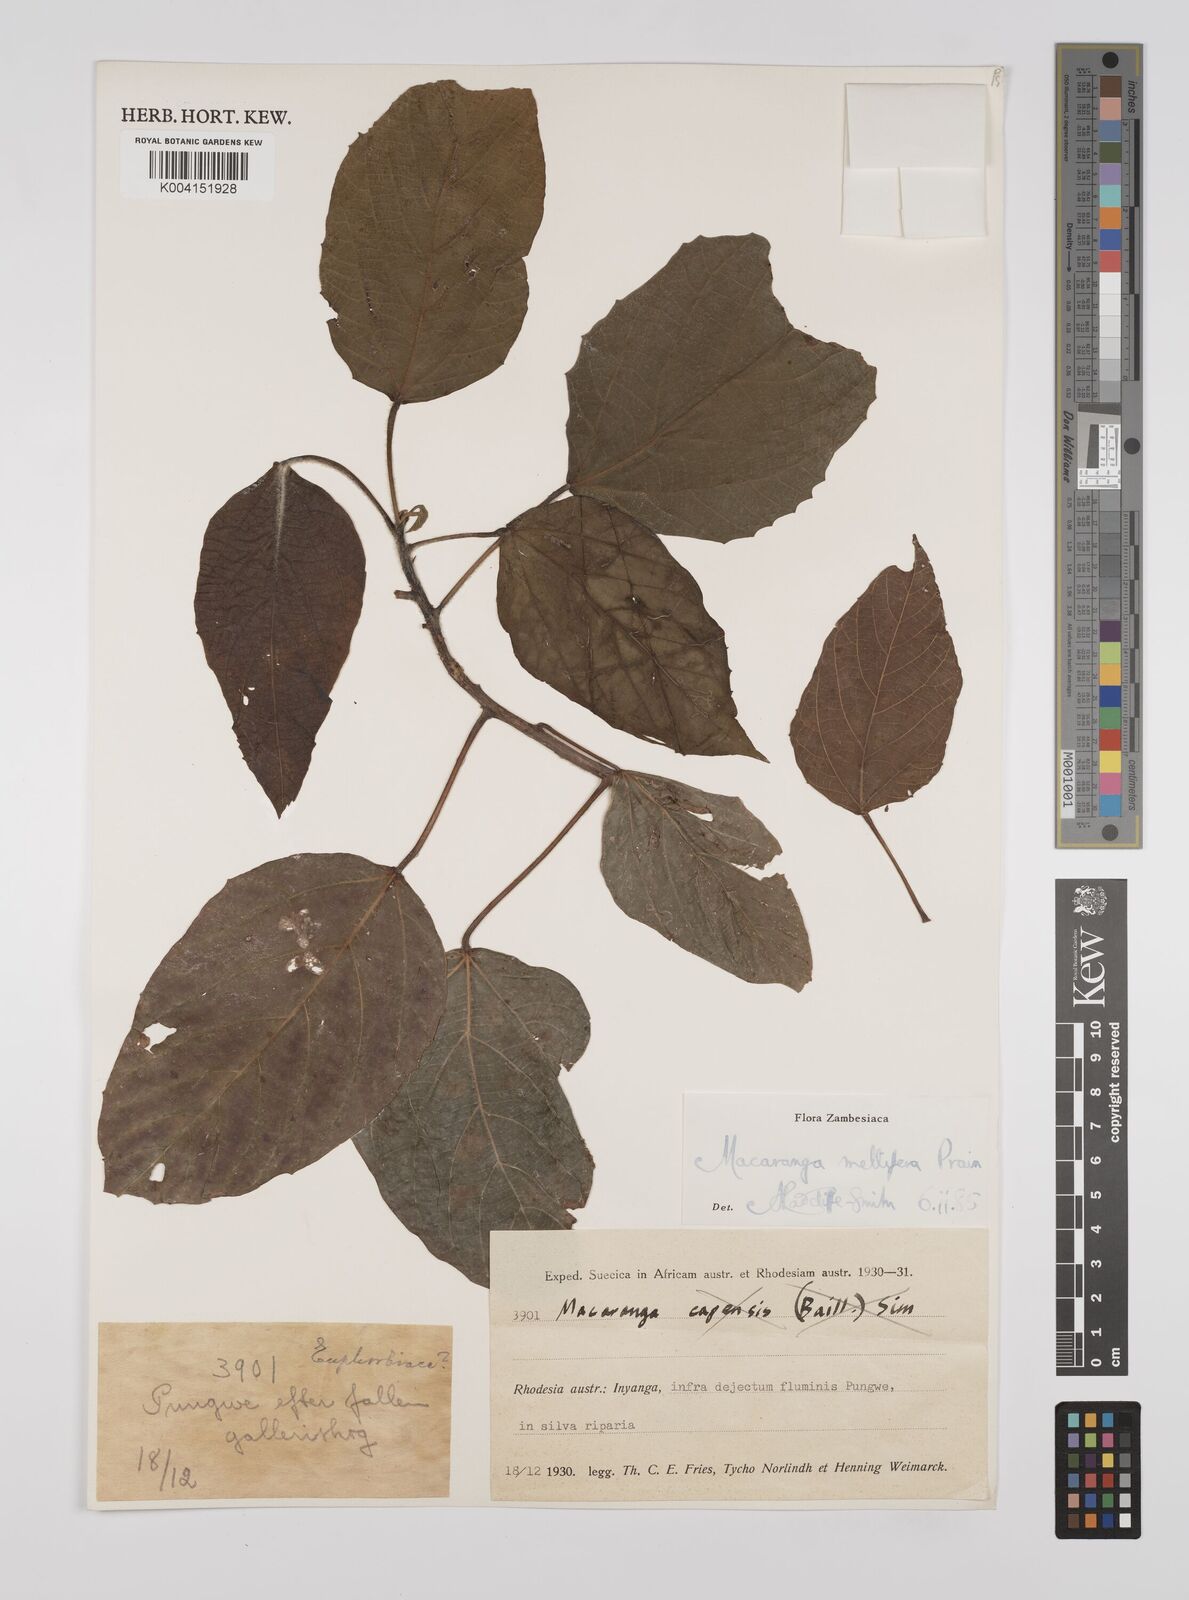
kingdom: Plantae
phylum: Tracheophyta
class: Magnoliopsida
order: Malpighiales
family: Euphorbiaceae
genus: Macaranga
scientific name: Macaranga mellifera
